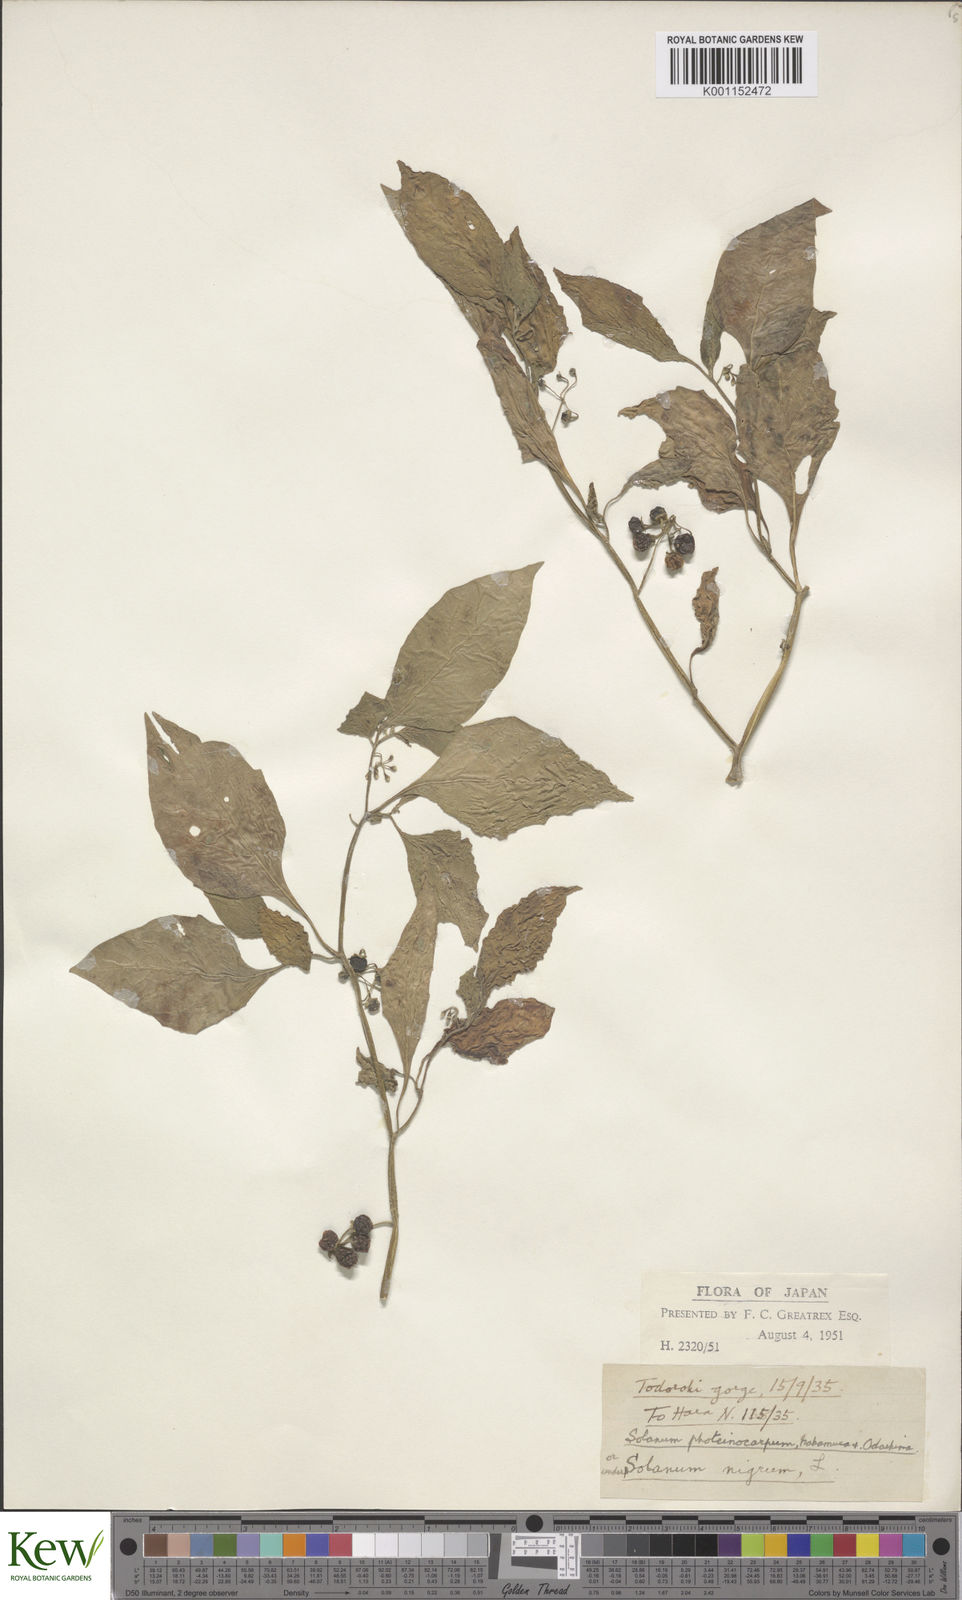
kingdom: Plantae
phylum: Tracheophyta
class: Magnoliopsida
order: Solanales
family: Solanaceae
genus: Solanum
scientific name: Solanum
